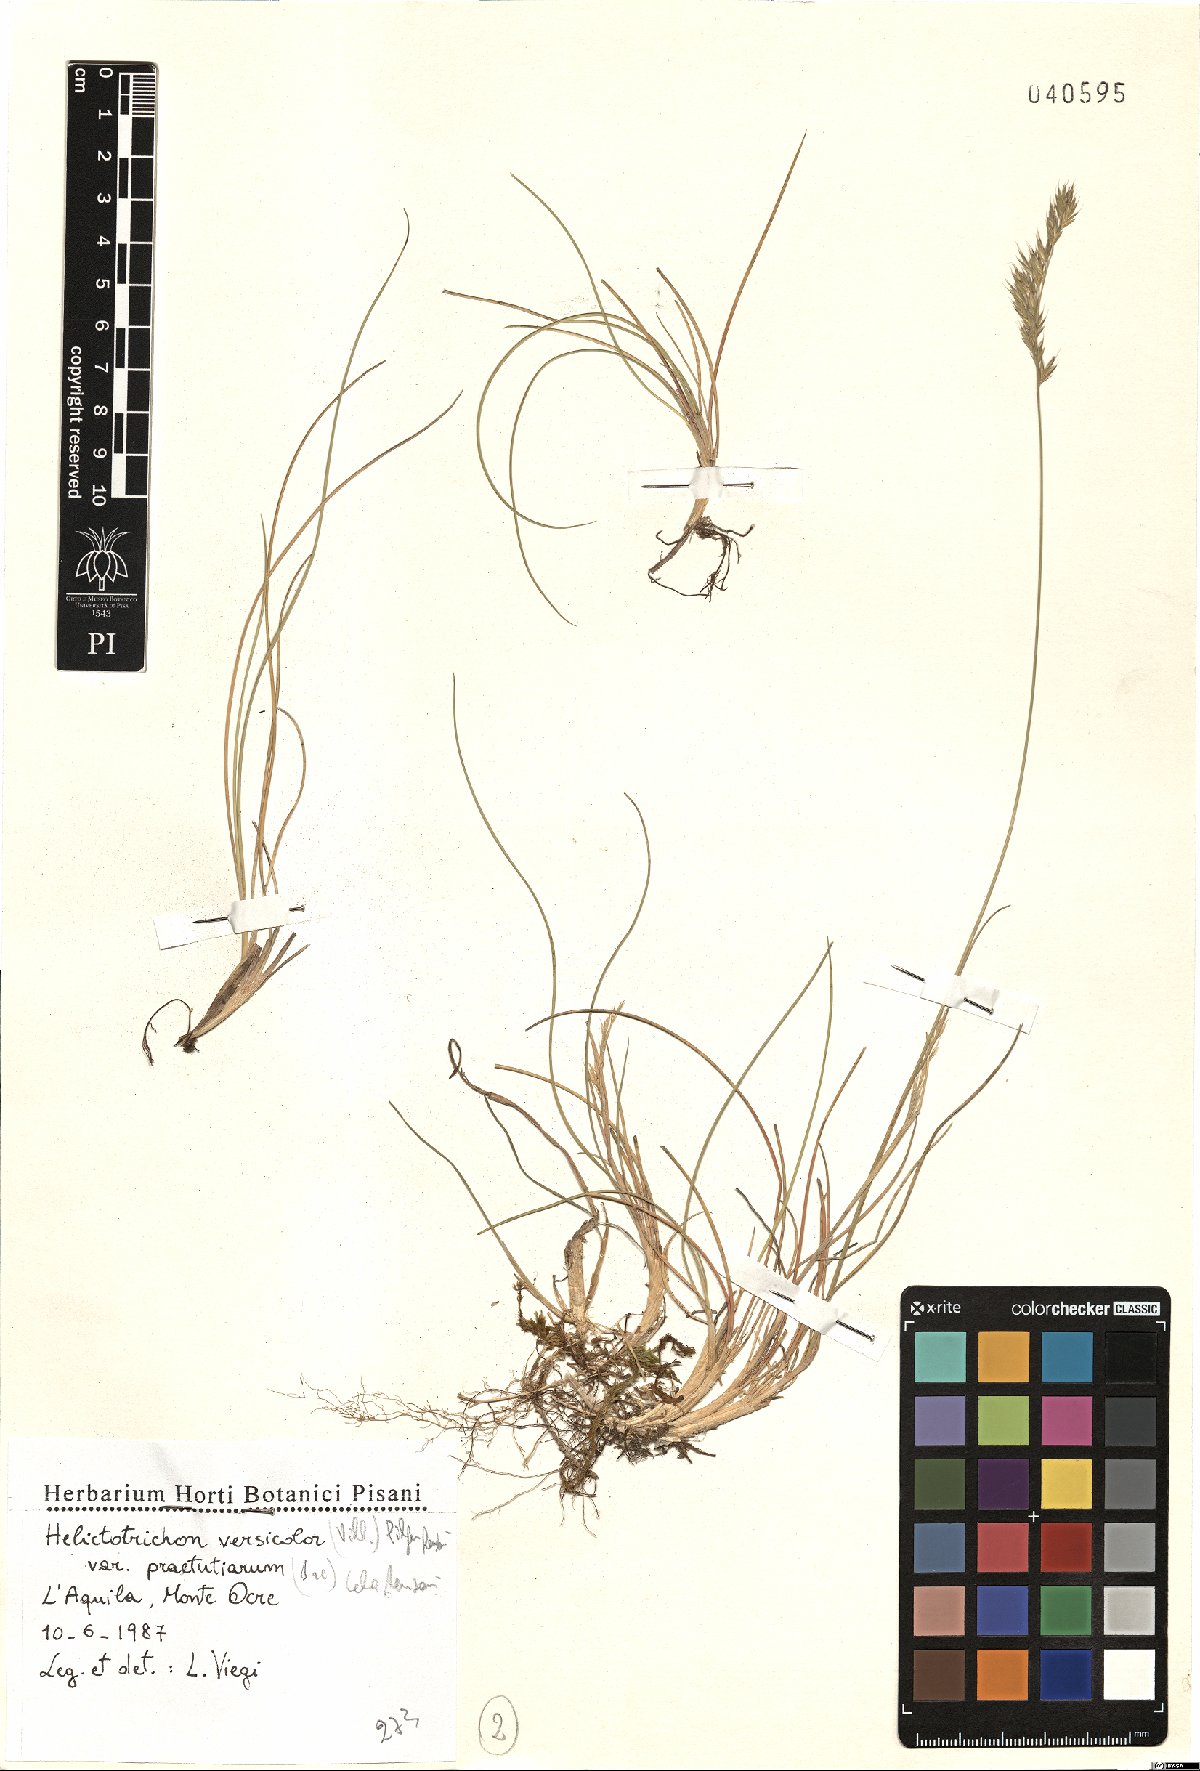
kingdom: Plantae
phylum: Tracheophyta
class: Liliopsida
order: Poales
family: Poaceae
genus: Helictochloa
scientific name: Helictochloa versicolor
